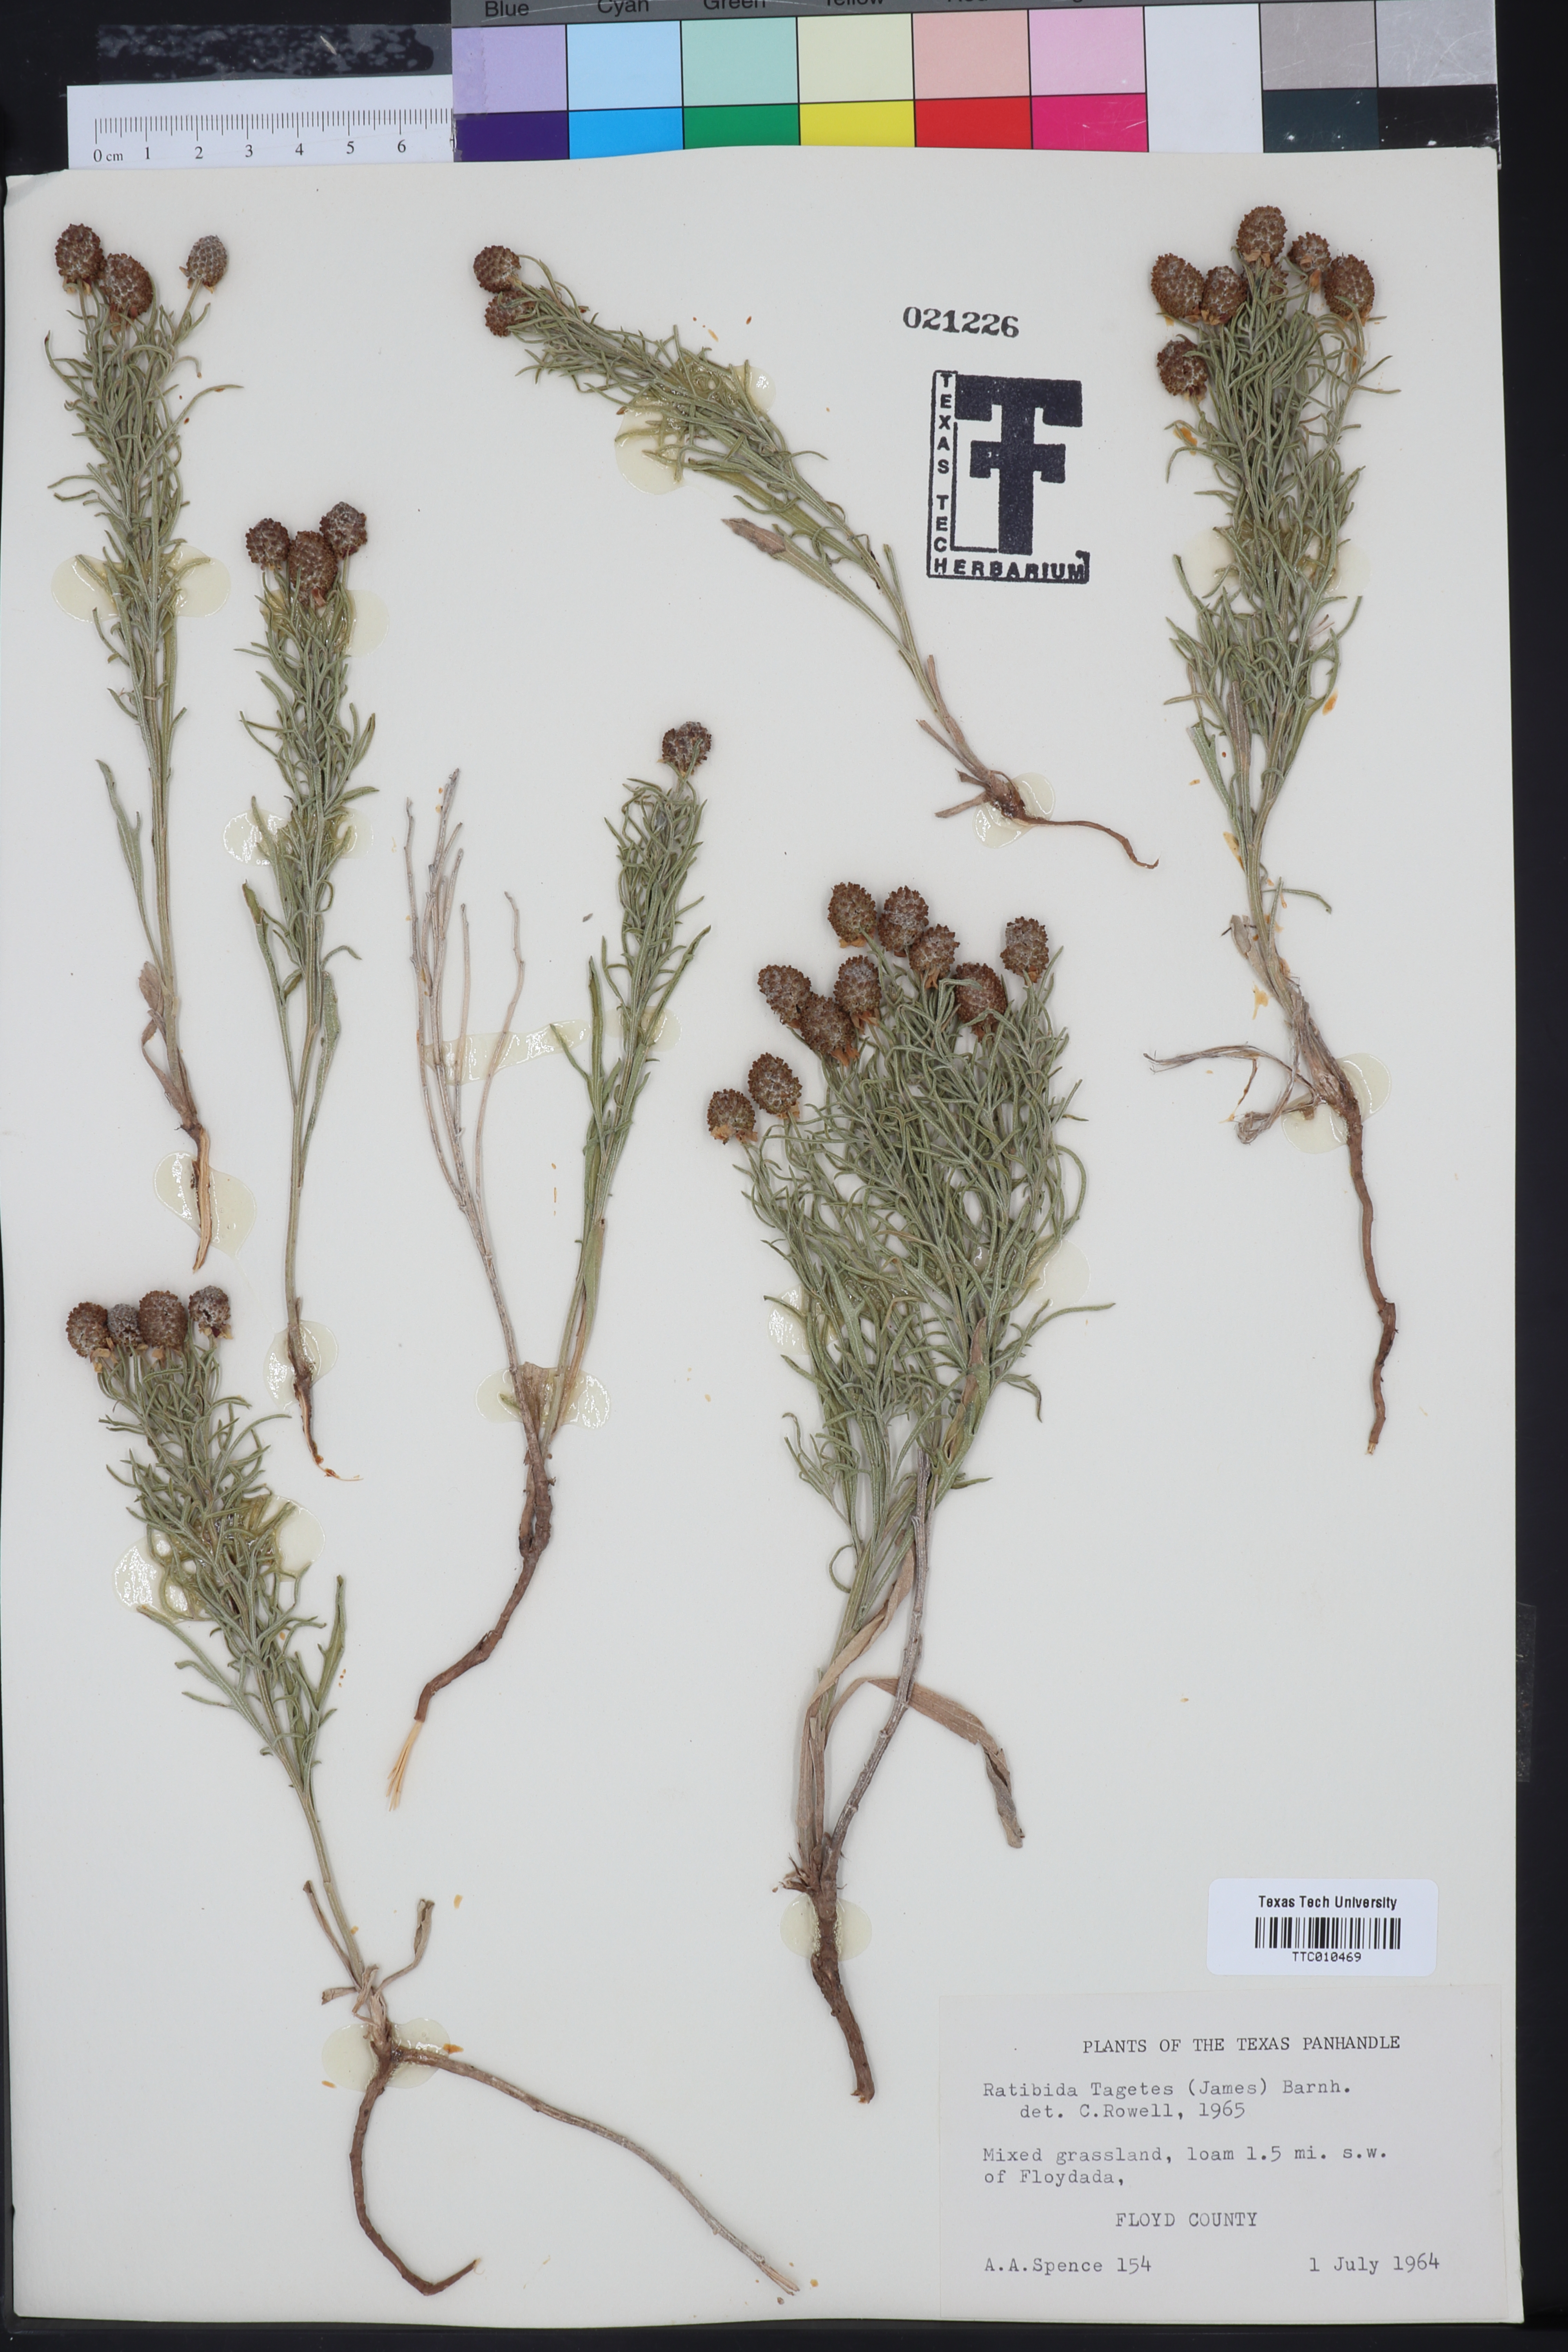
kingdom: Plantae
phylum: Tracheophyta
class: Magnoliopsida
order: Asterales
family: Asteraceae
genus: Ratibida
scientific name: Ratibida tagetes
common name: Green mexican-hat
